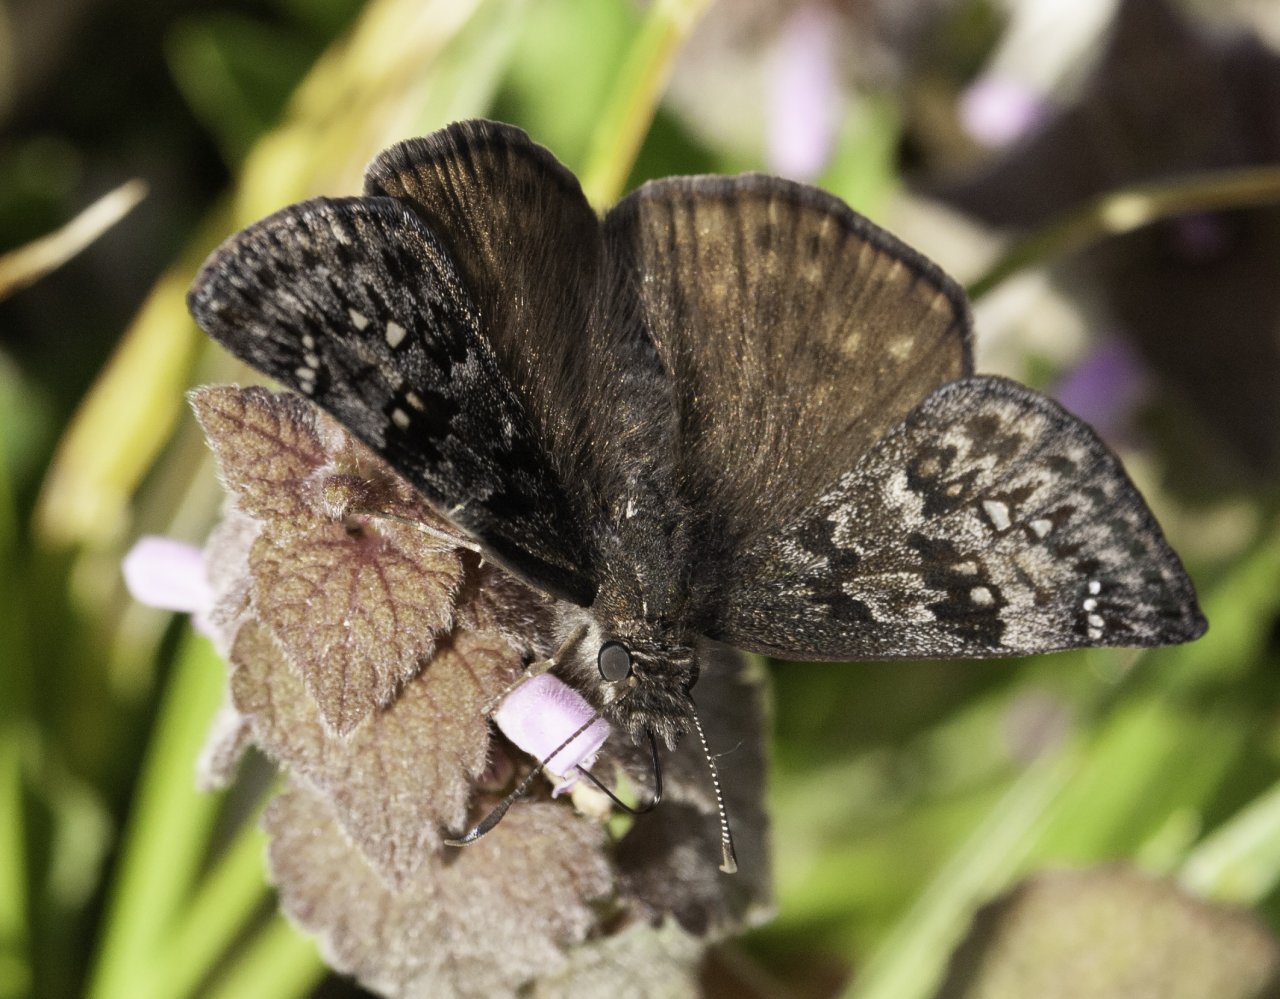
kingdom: Animalia
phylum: Arthropoda
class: Insecta
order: Lepidoptera
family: Hesperiidae
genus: Erynnis
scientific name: Erynnis propertius
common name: Propertius Duskywing
